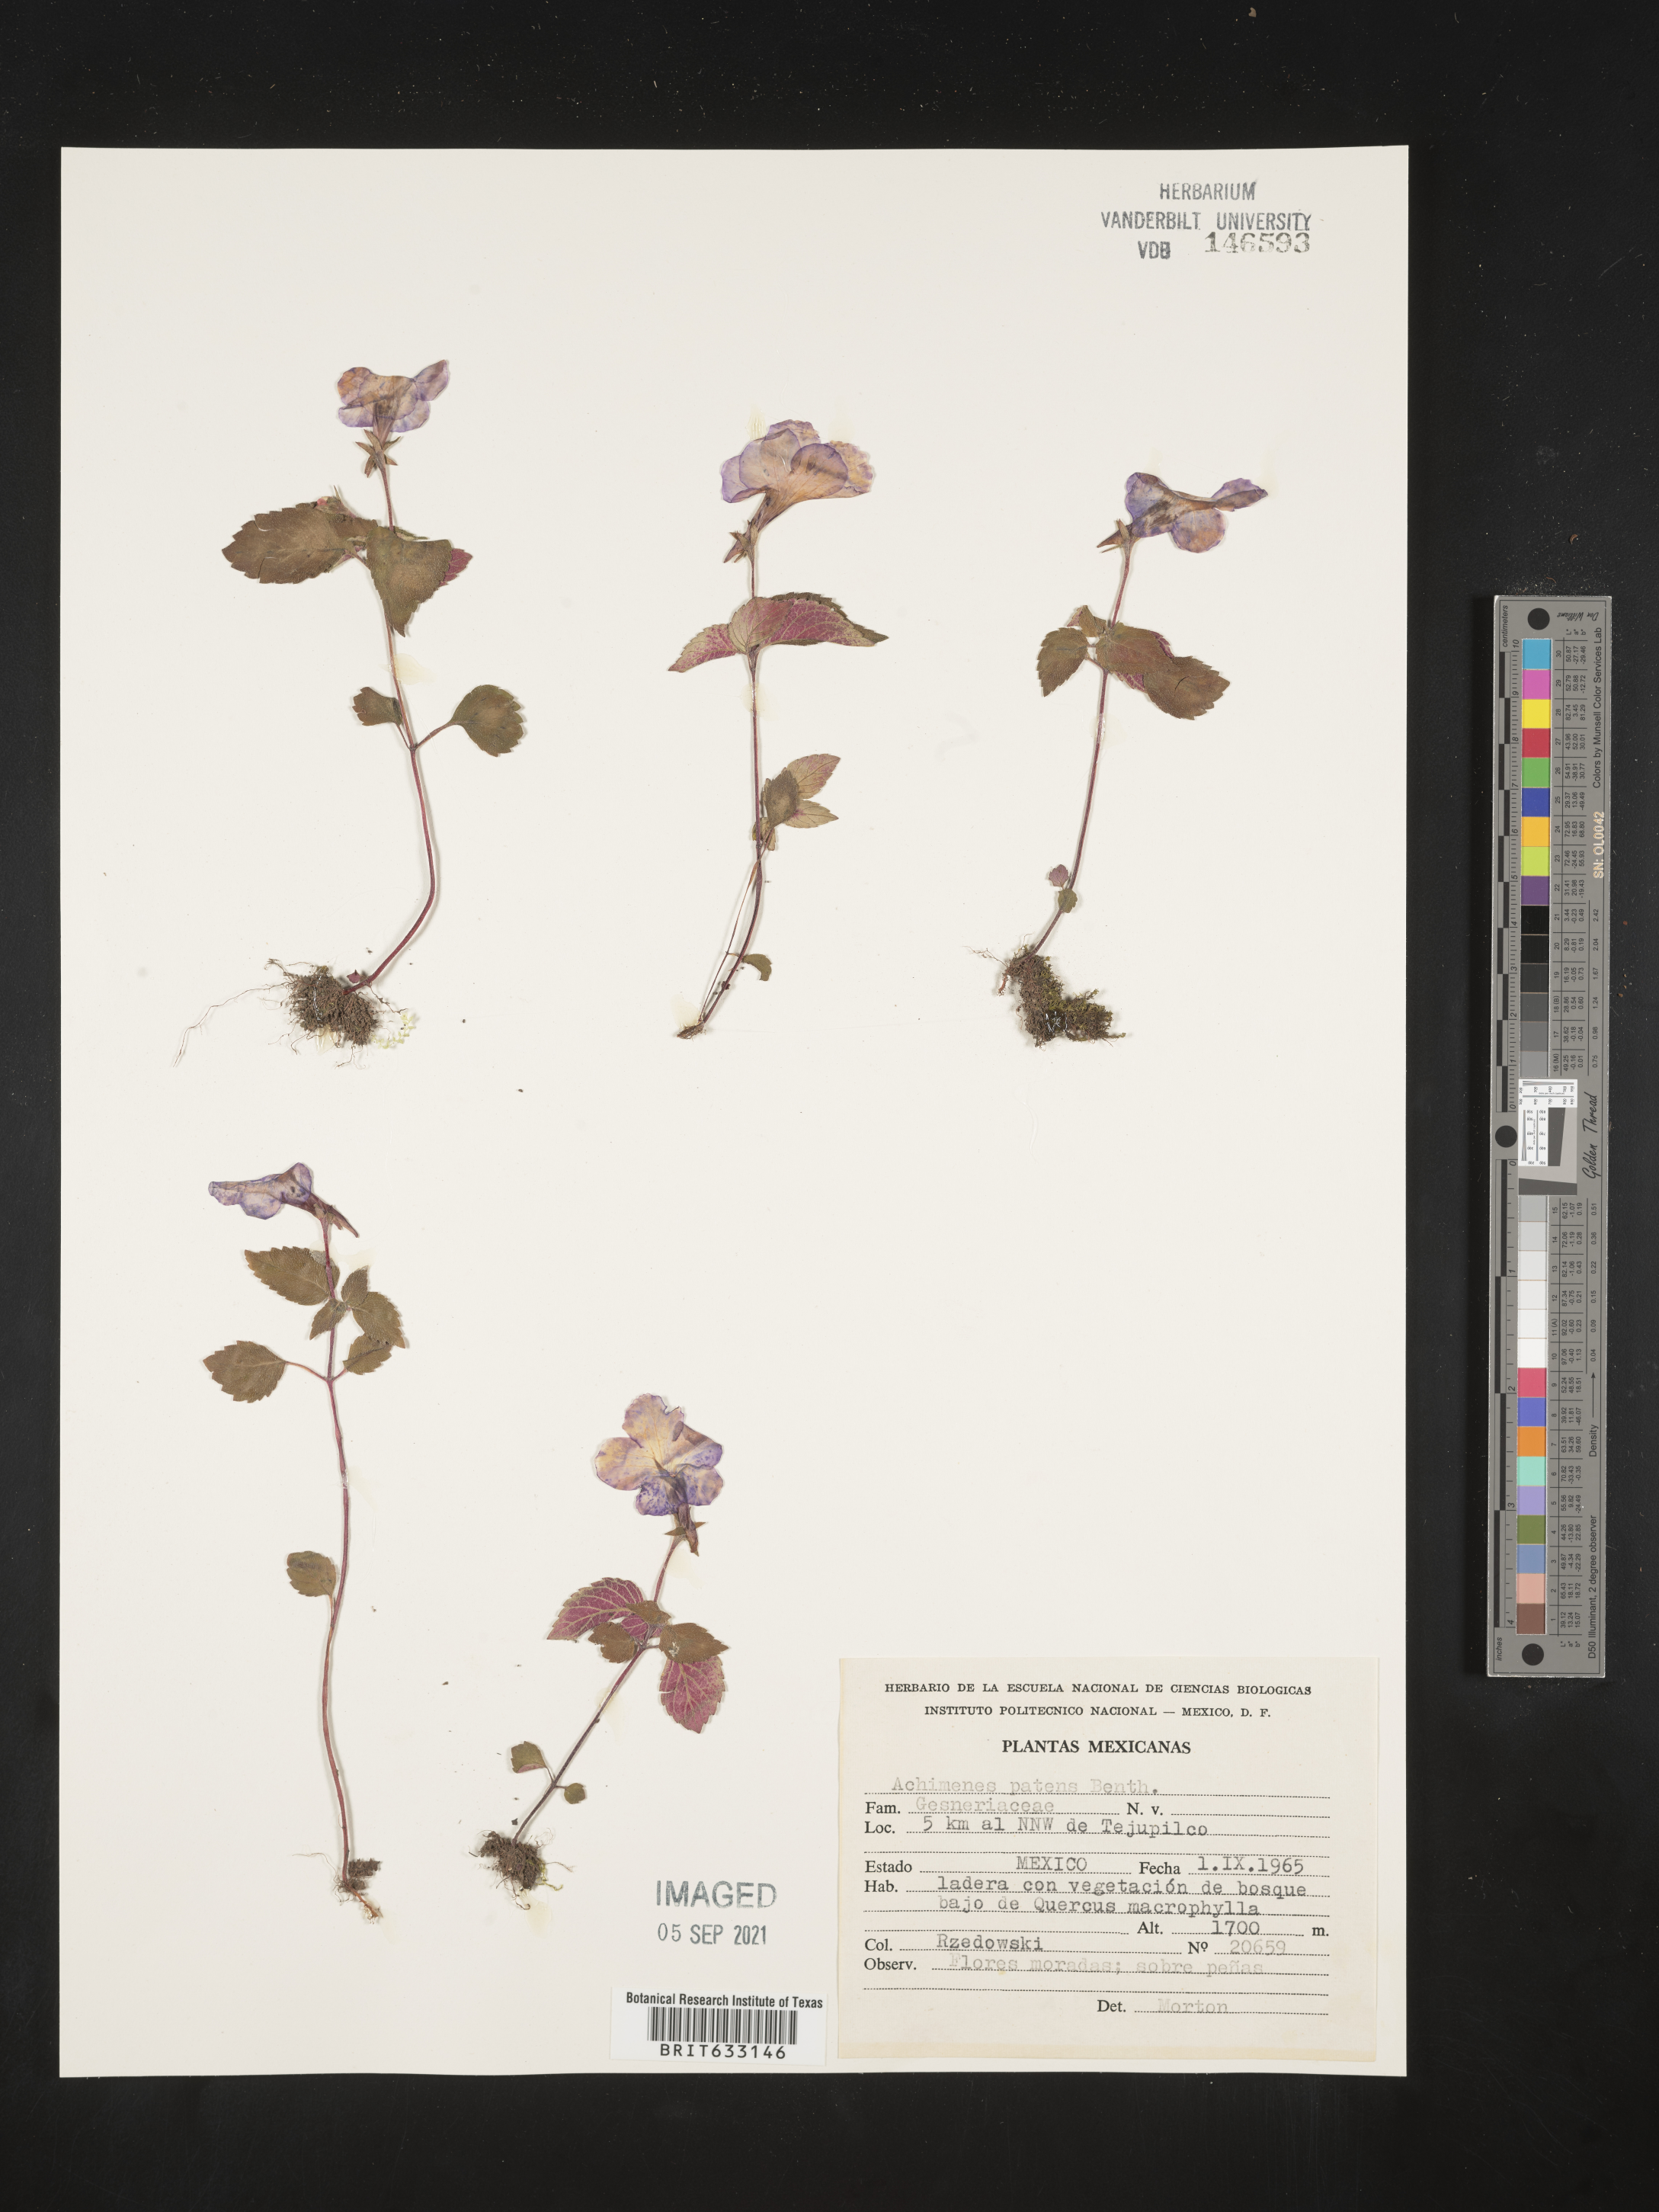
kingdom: Plantae
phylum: Tracheophyta
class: Magnoliopsida
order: Lamiales
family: Gesneriaceae
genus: Achimenes
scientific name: Achimenes
